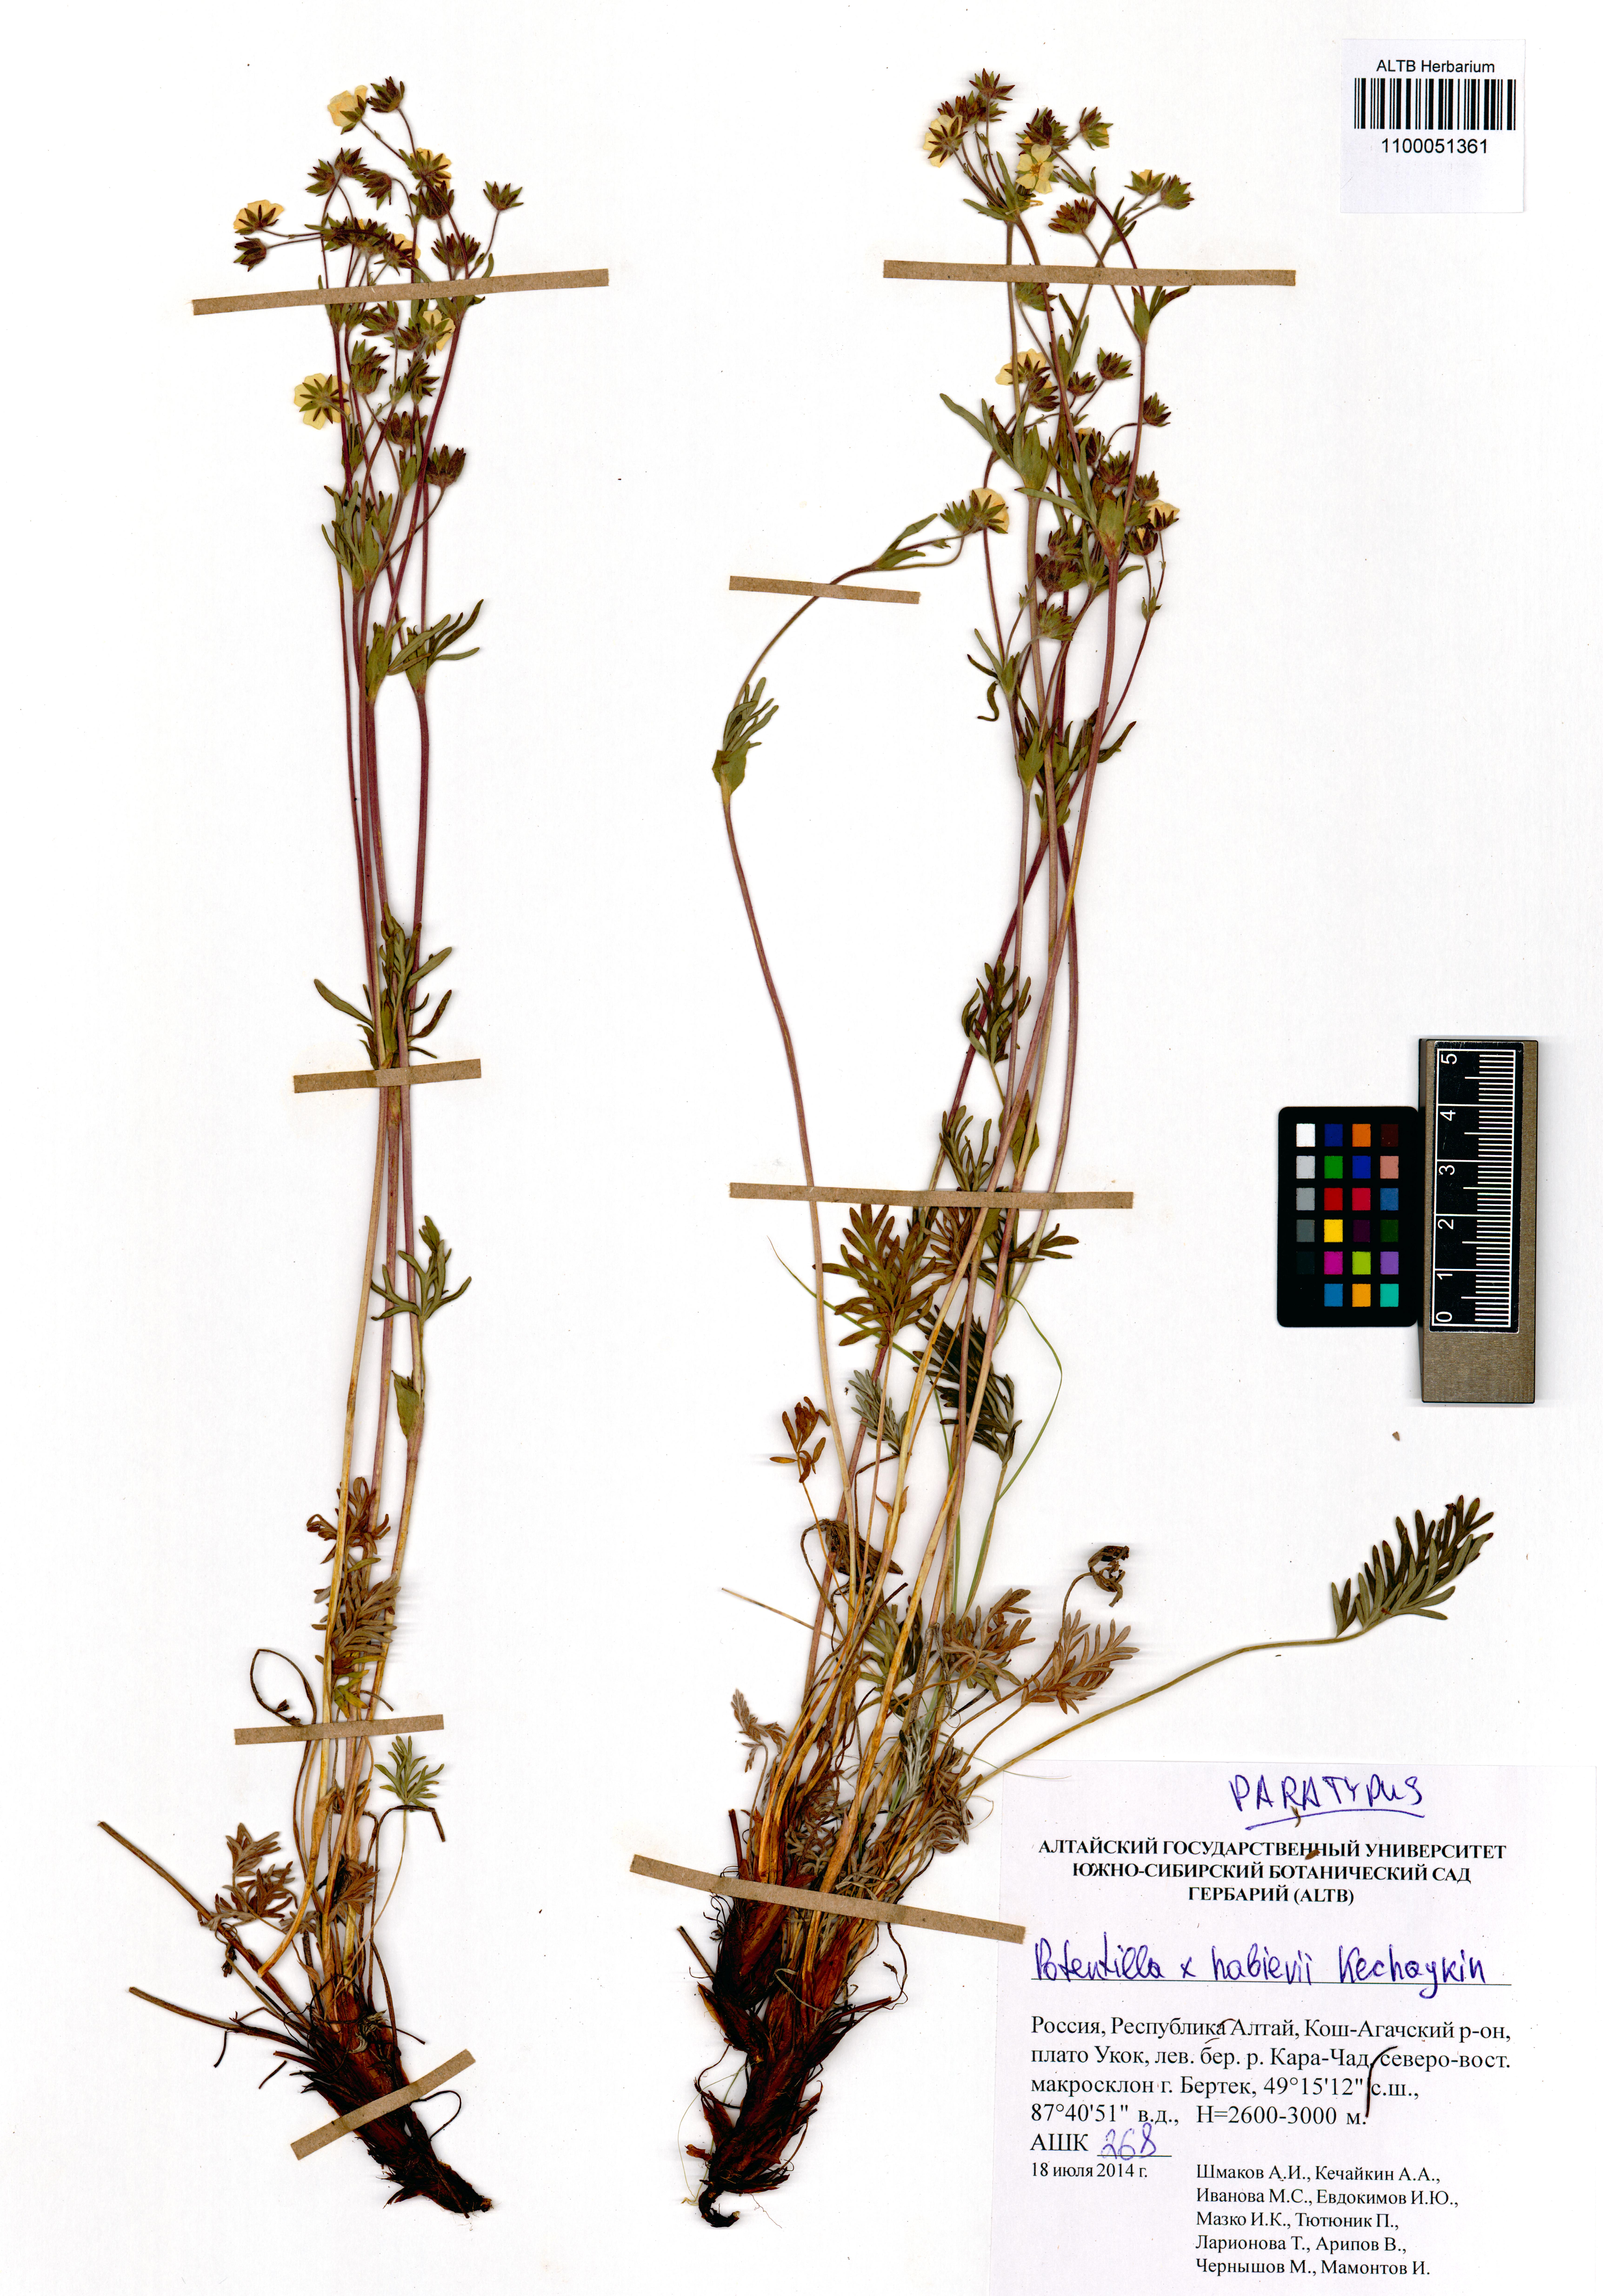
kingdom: Plantae
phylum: Tracheophyta
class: Magnoliopsida
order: Rosales
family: Rosaceae
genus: Potentilla
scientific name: Potentilla habievii
